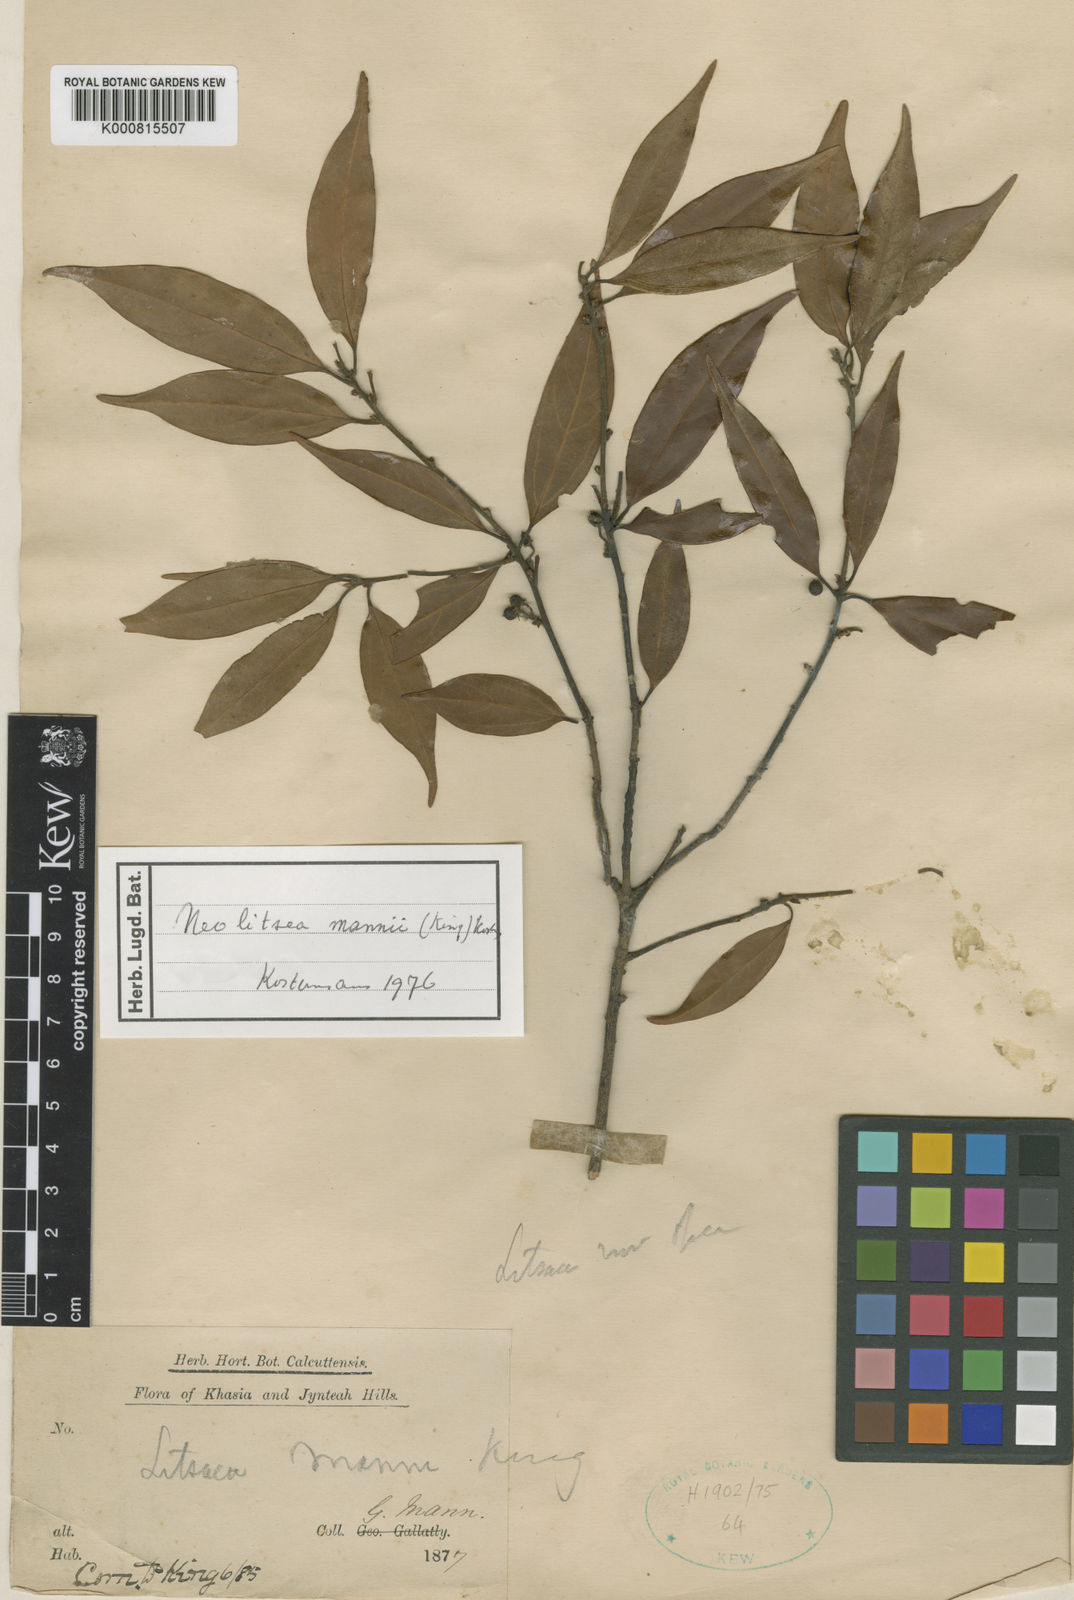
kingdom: Plantae
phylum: Tracheophyta
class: Magnoliopsida
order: Laurales
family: Lauraceae
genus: Neolitsea
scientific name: Neolitsea mannii
